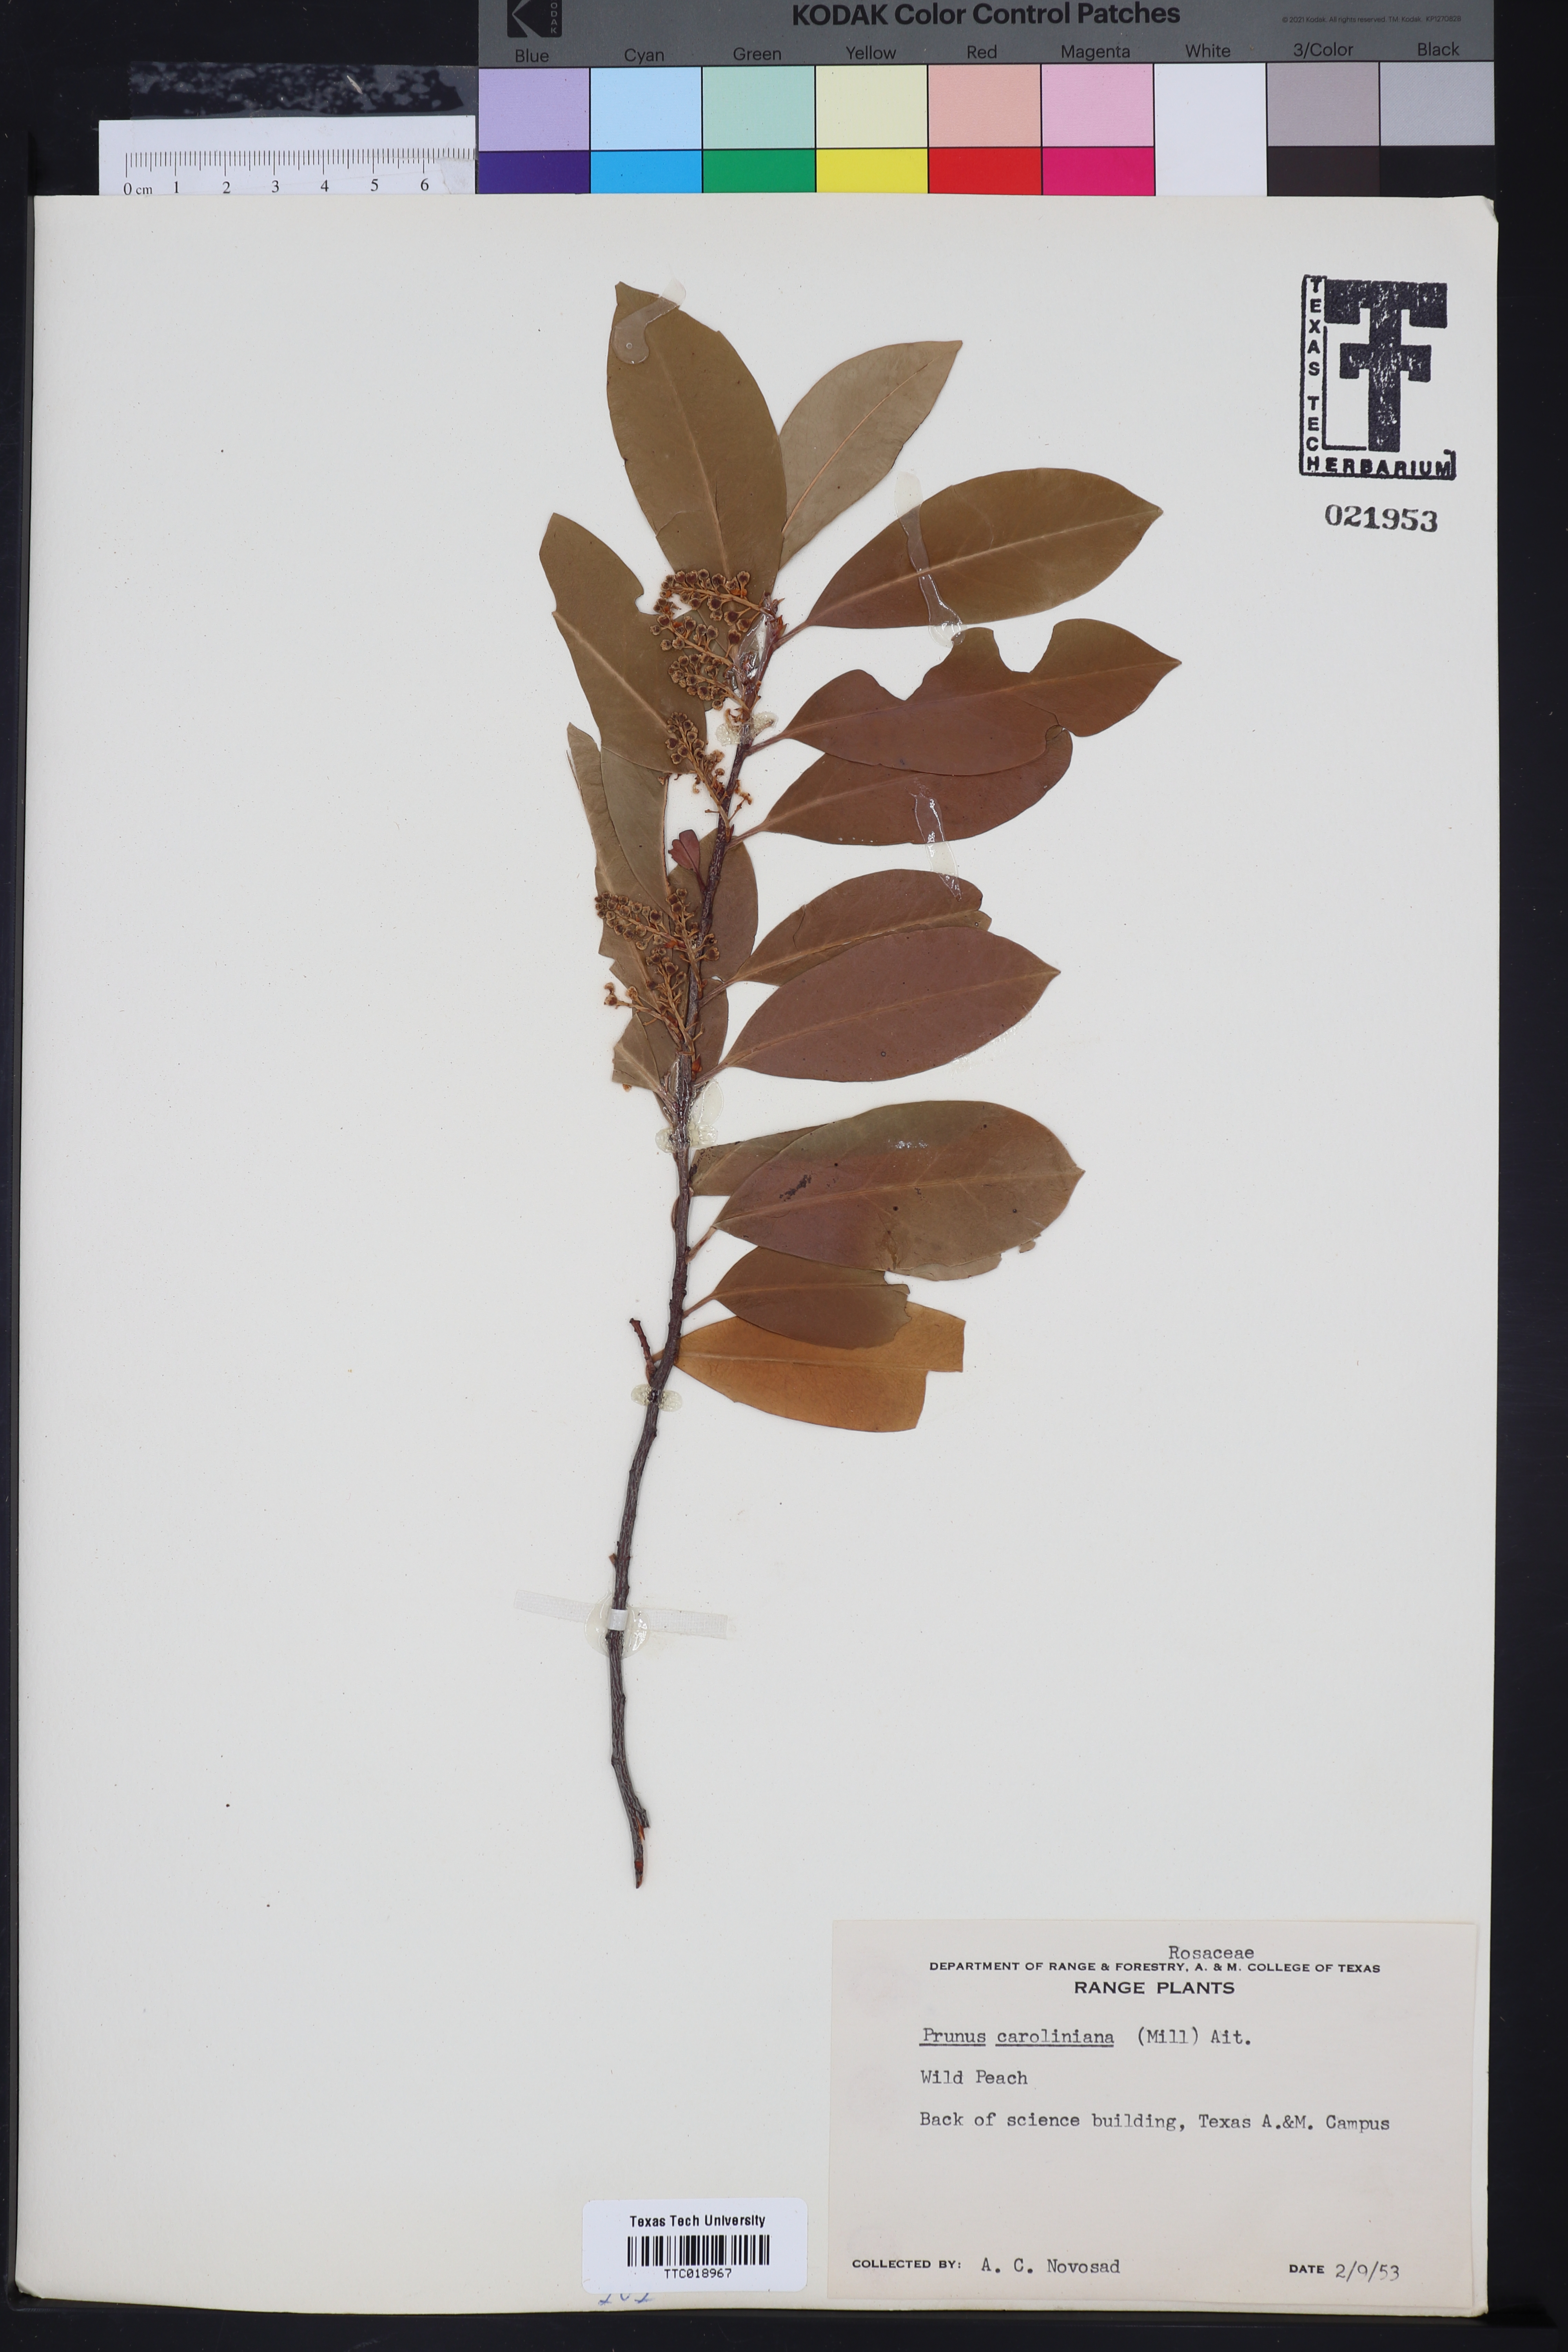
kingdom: Plantae
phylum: Tracheophyta
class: Magnoliopsida
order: Rosales
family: Rosaceae
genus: Prunus
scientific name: Prunus caroliniana
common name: Carolina laurel cherry
